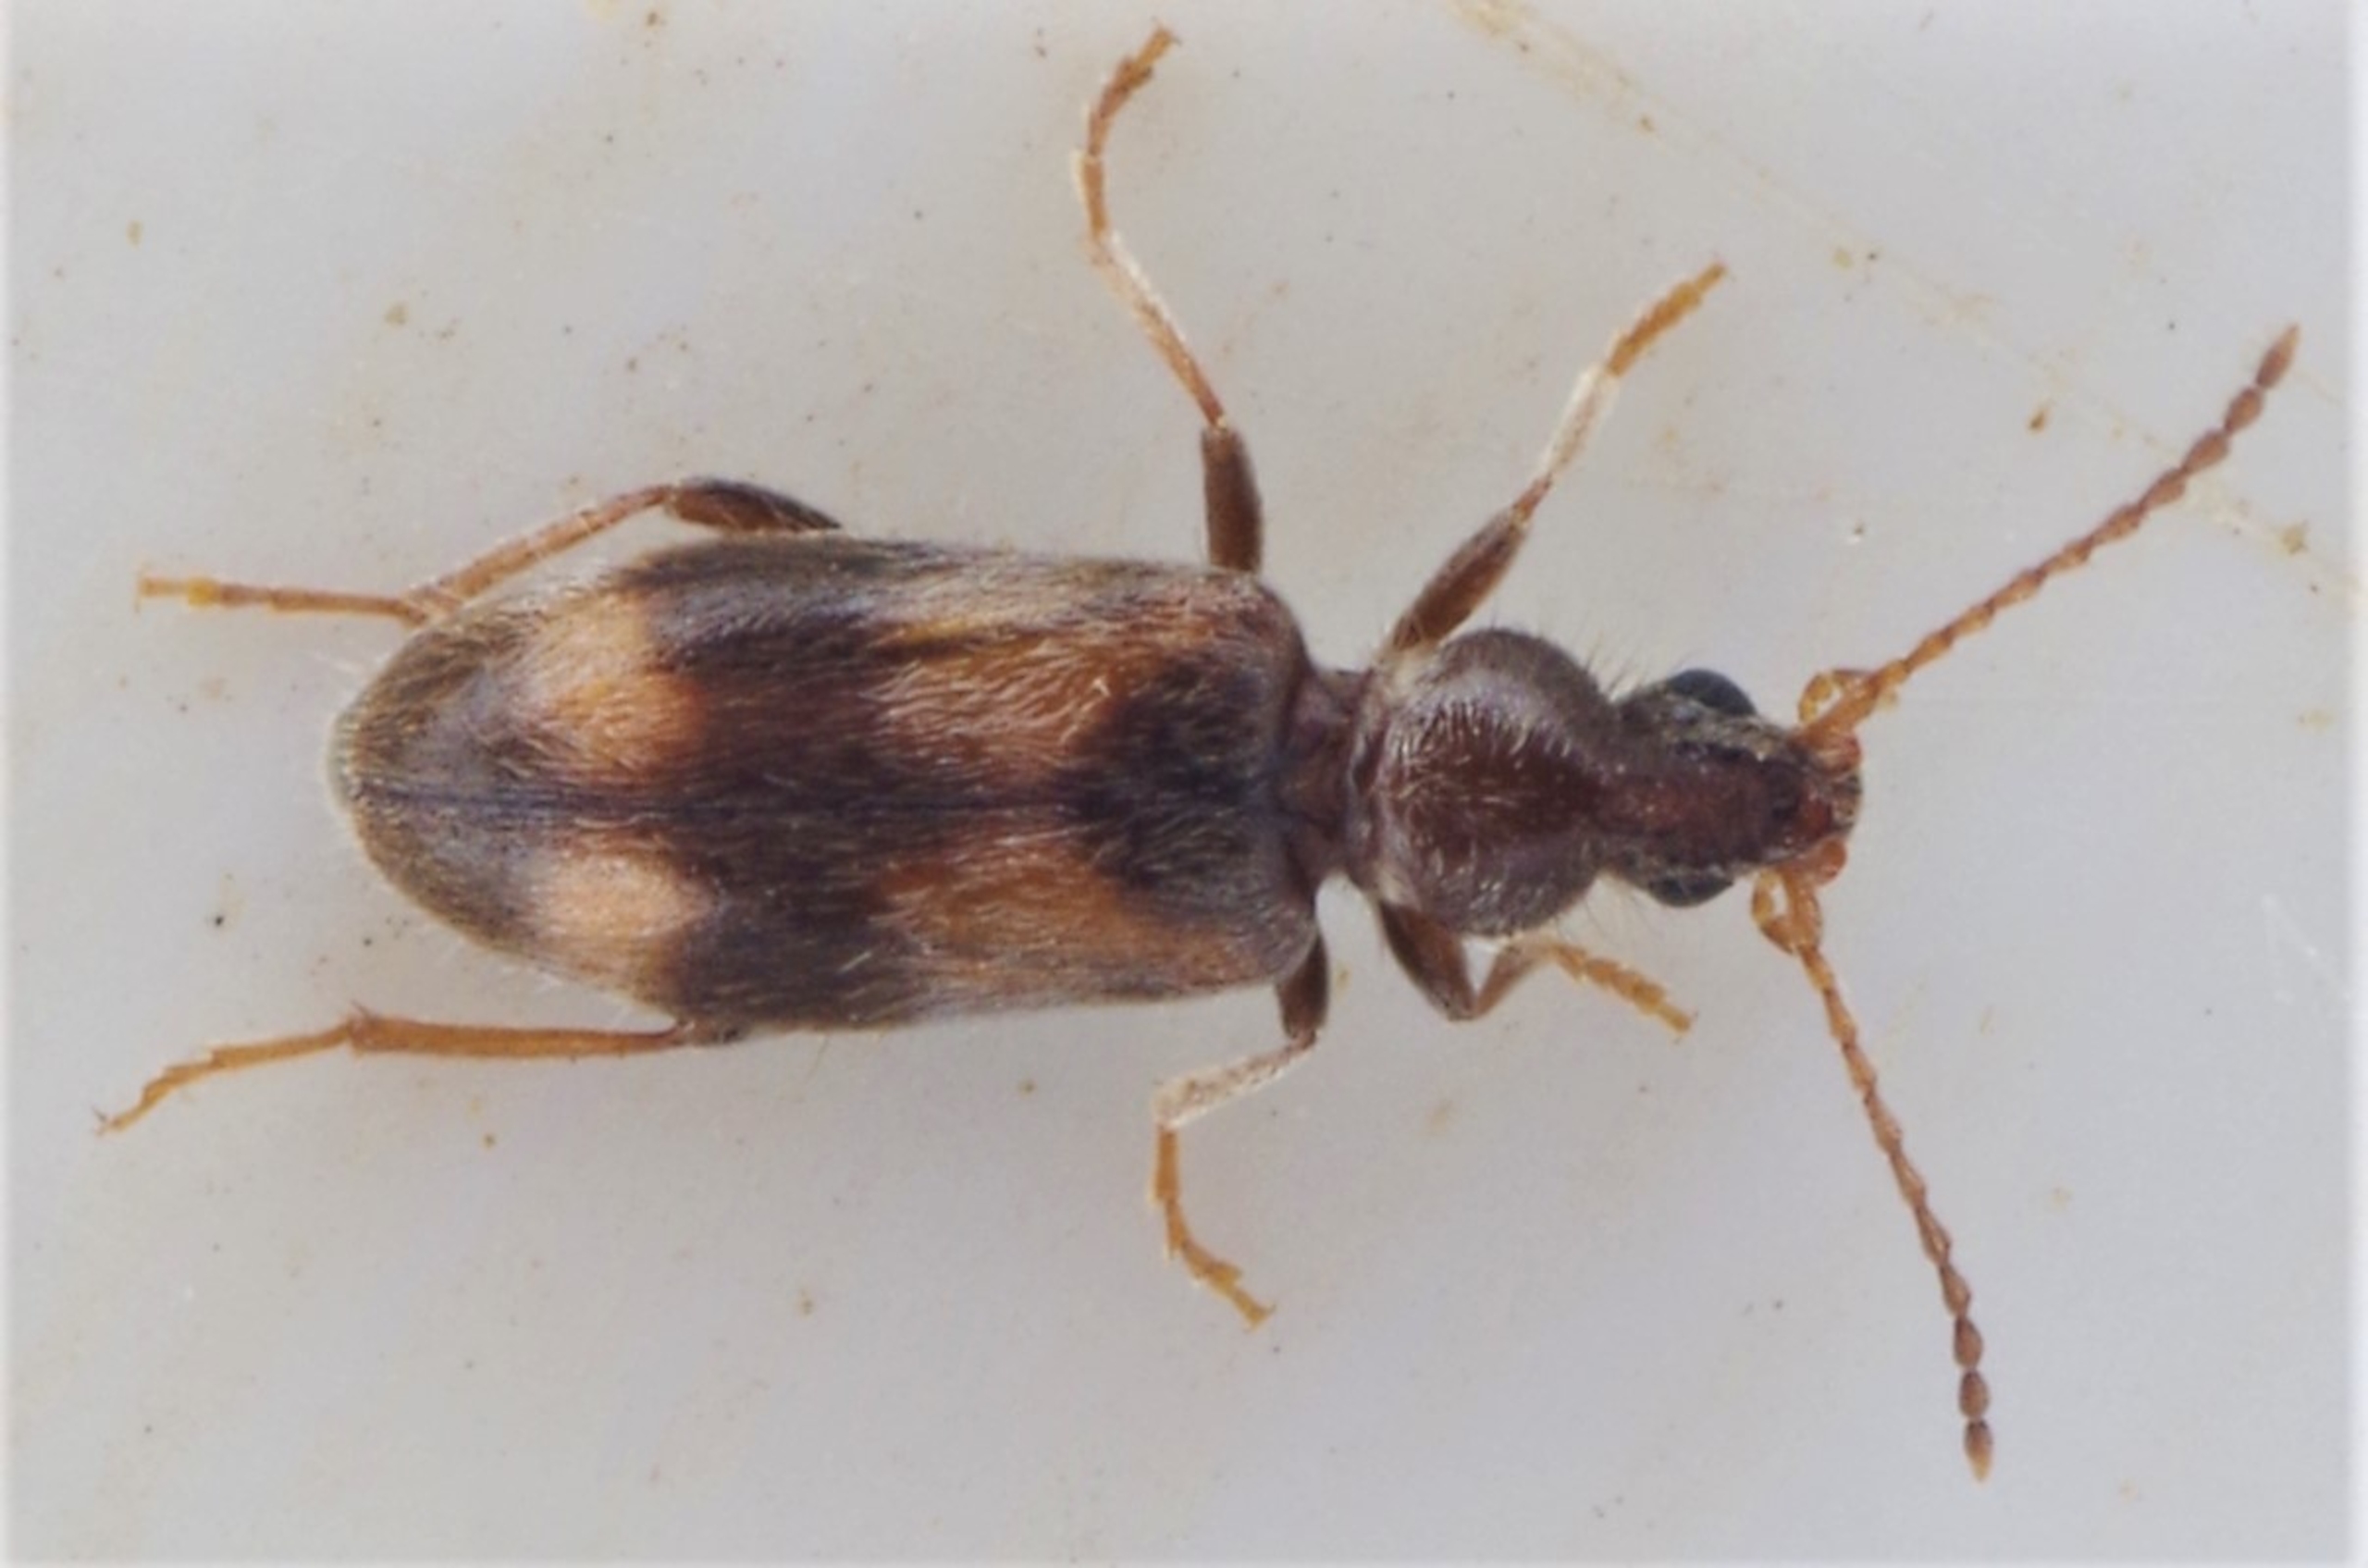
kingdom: Animalia
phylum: Arthropoda
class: Insecta
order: Coleoptera
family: Anthicidae
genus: Notoxus
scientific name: Notoxus trifasciatus
